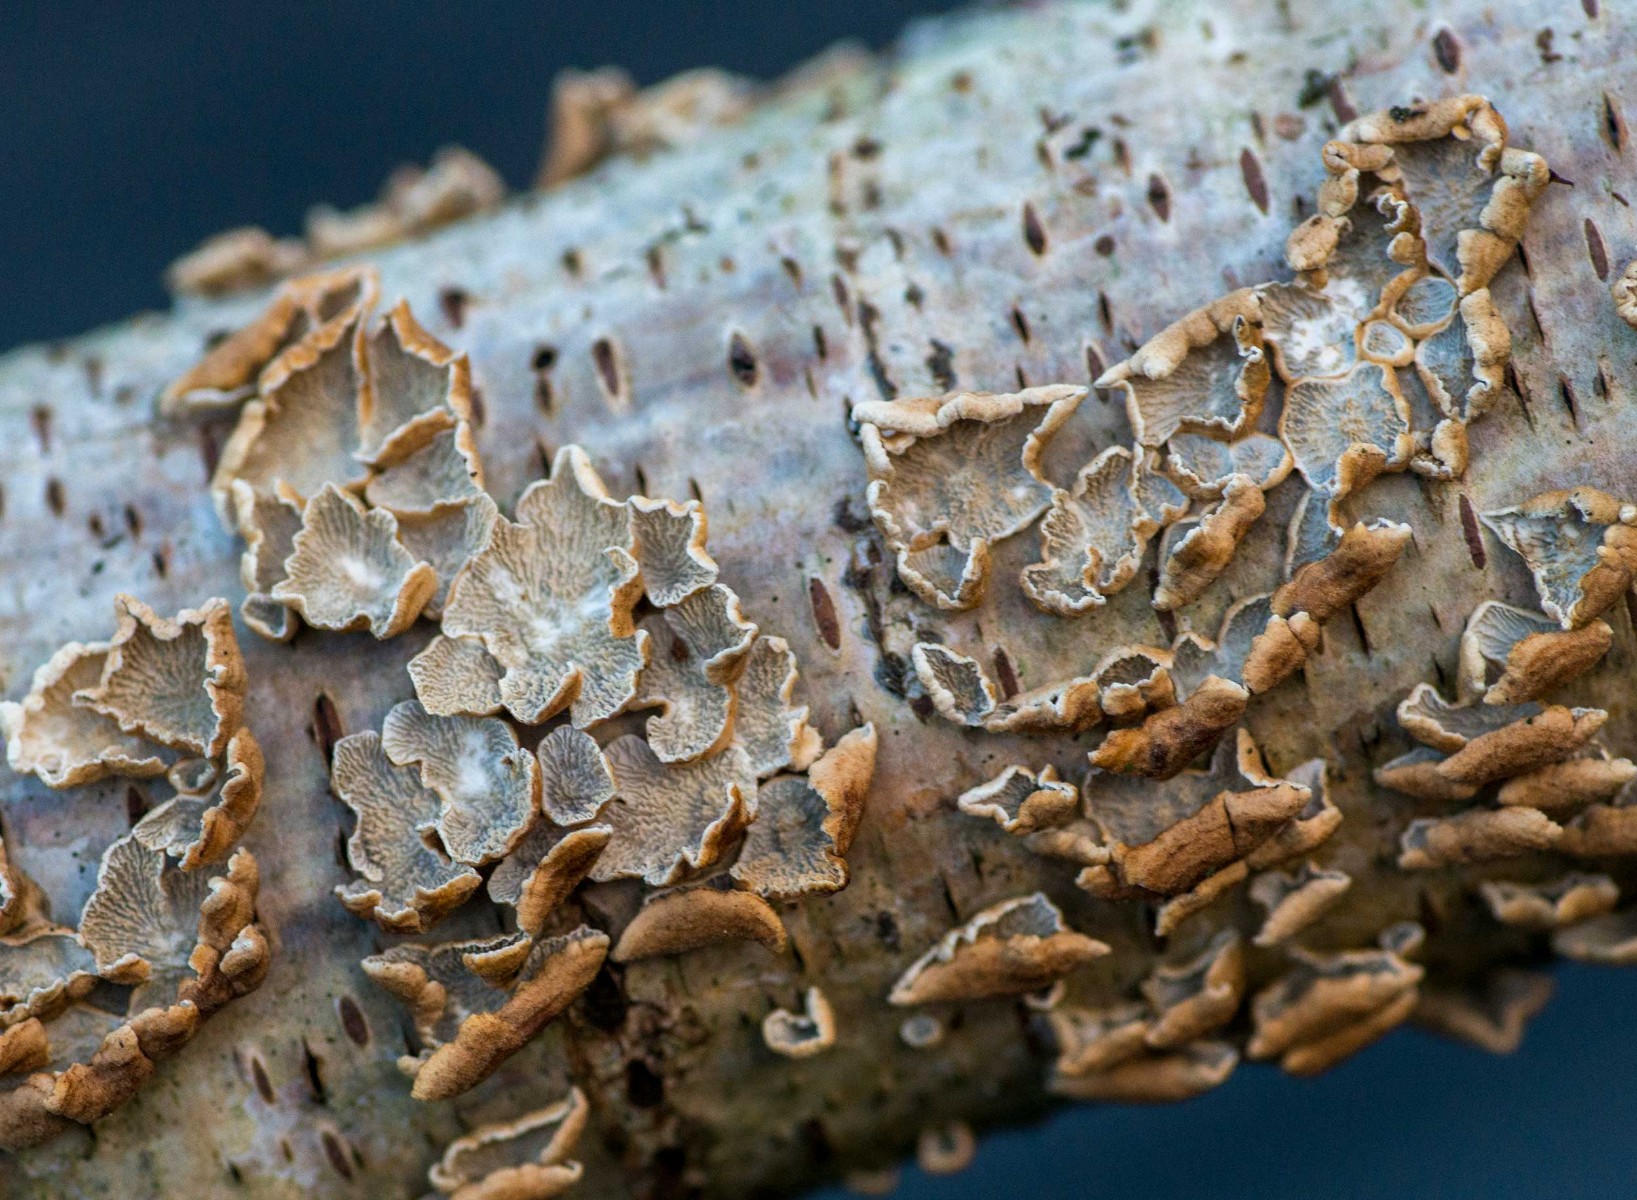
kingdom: Fungi
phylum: Basidiomycota
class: Agaricomycetes
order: Amylocorticiales
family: Amylocorticiaceae
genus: Plicaturopsis
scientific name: Plicaturopsis crispa
